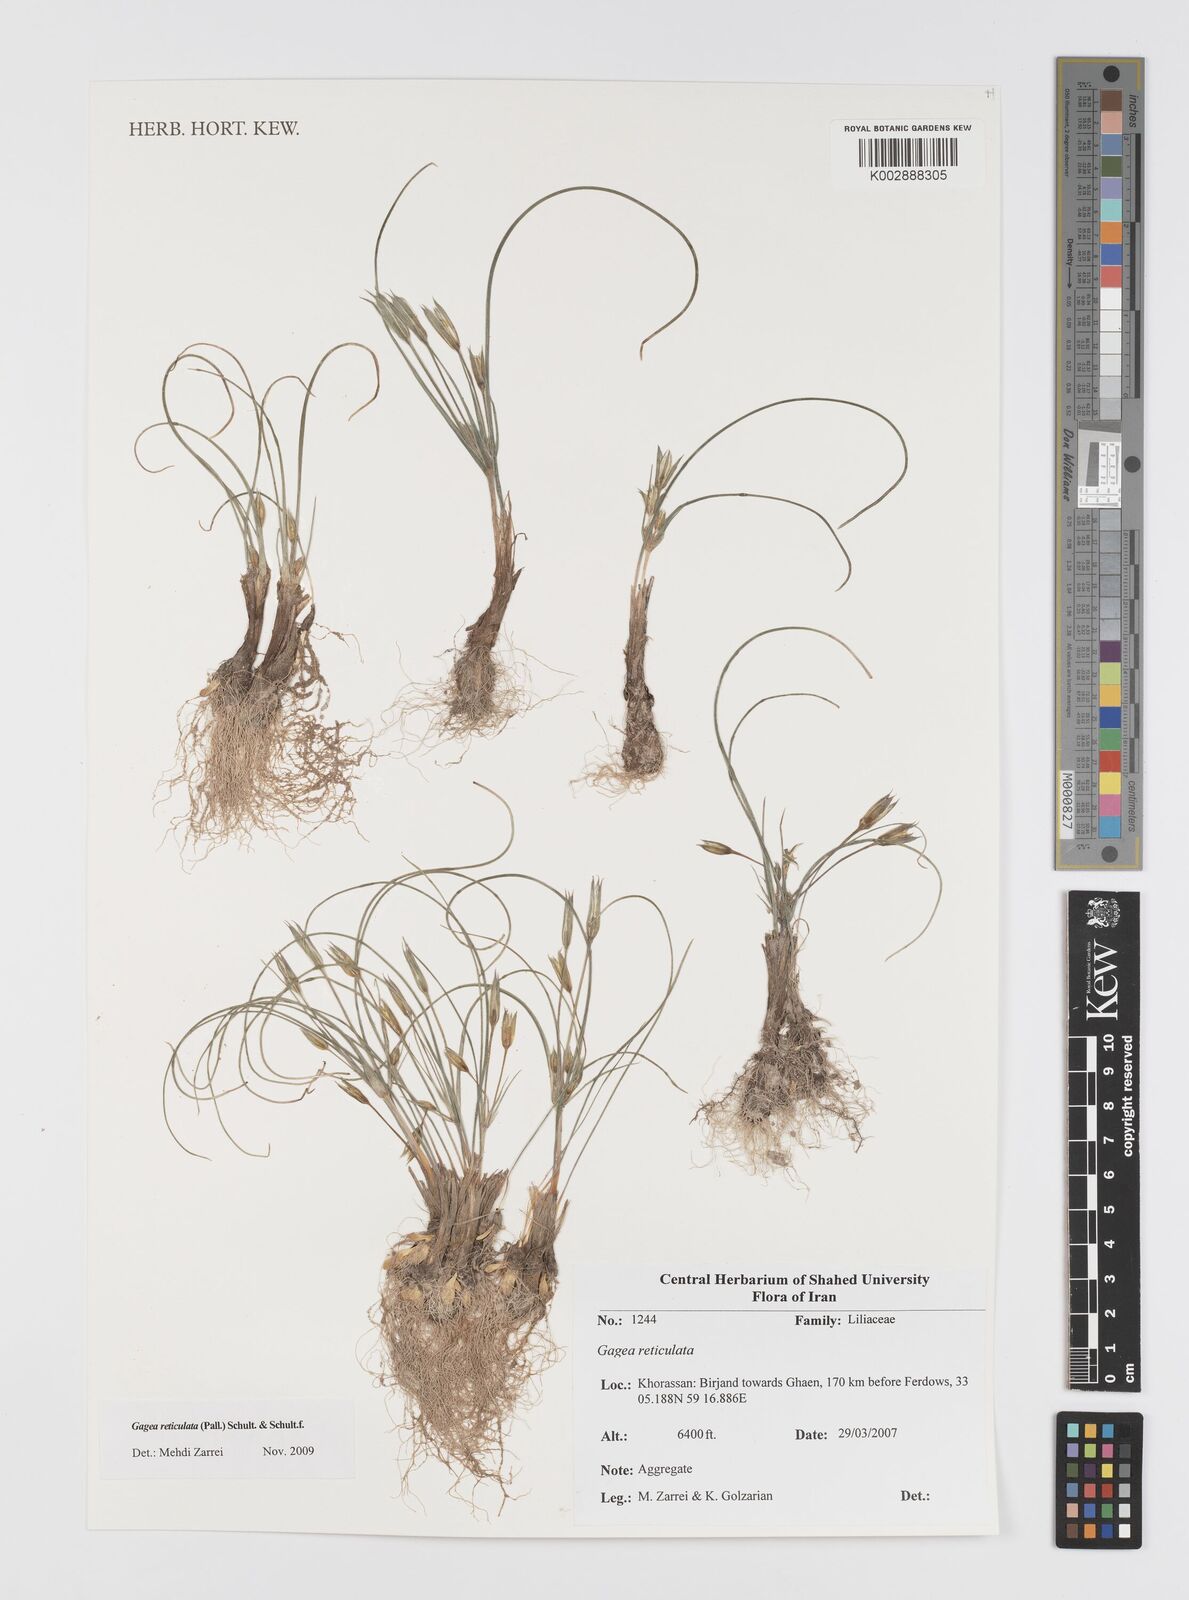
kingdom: Plantae
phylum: Tracheophyta
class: Liliopsida
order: Liliales
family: Liliaceae
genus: Gagea
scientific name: Gagea reticulata
